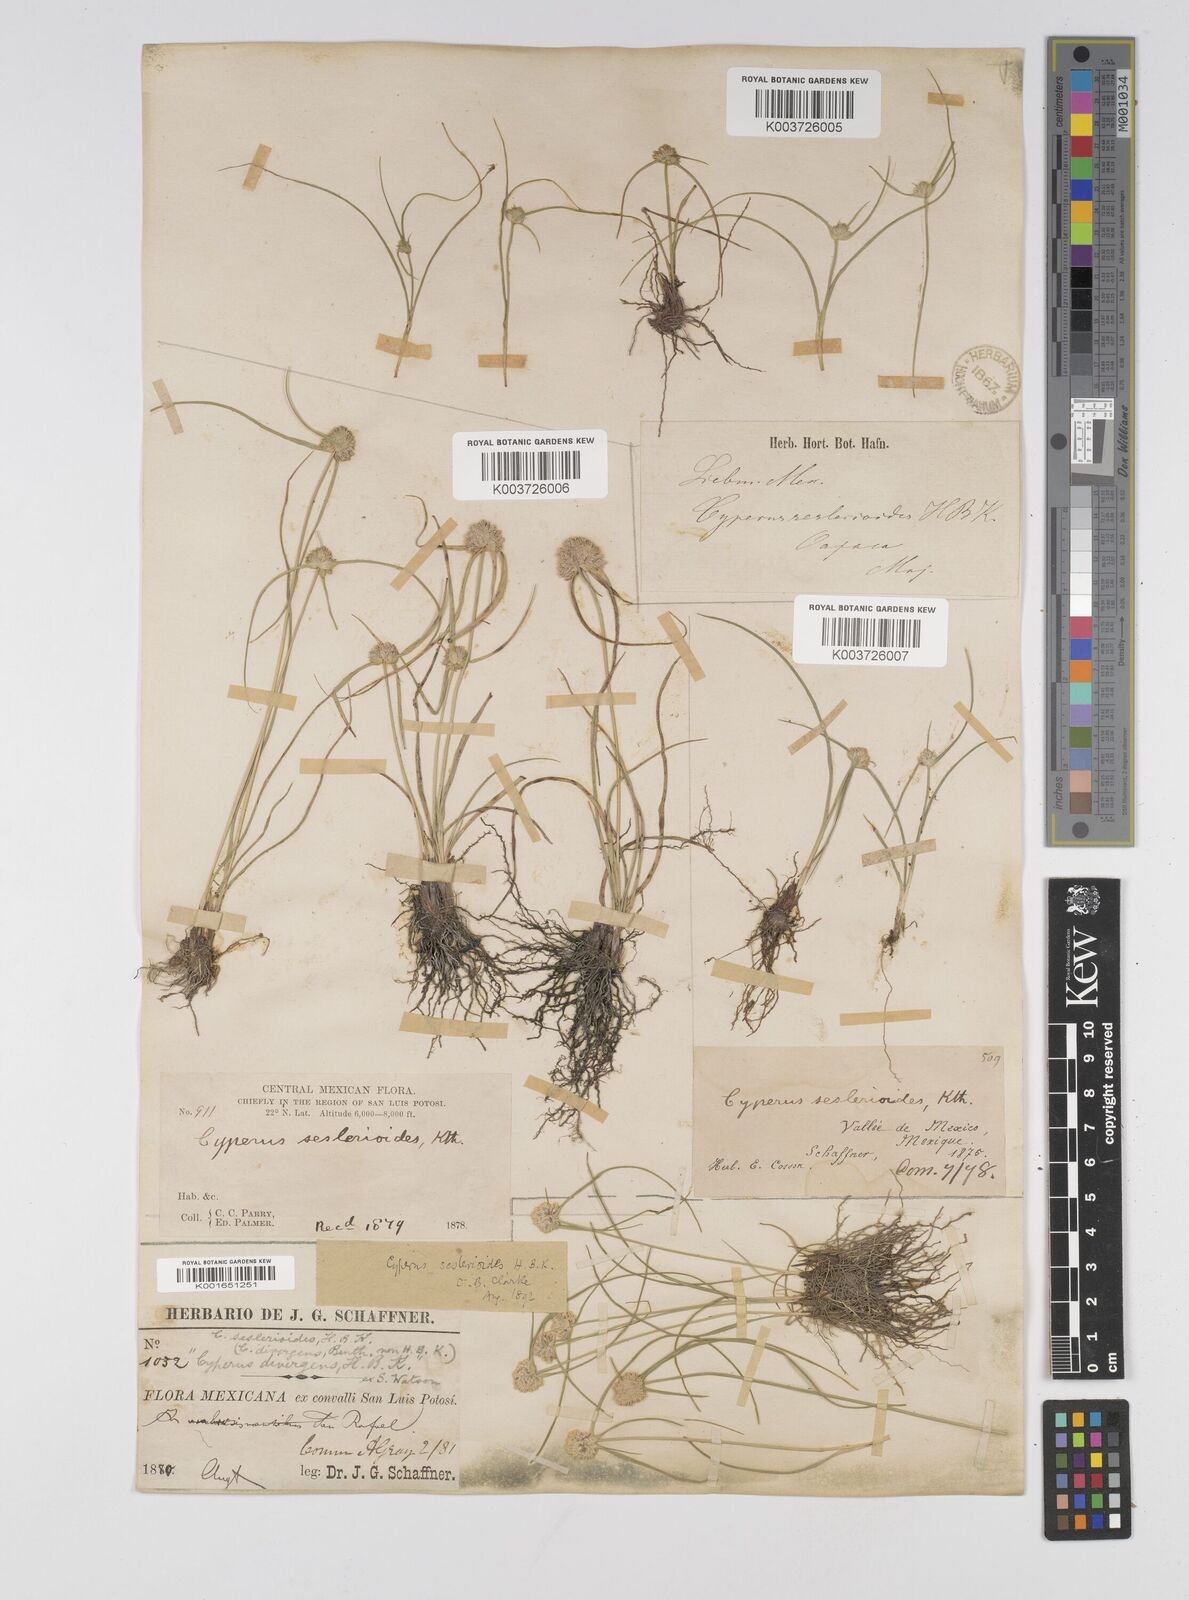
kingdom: Plantae
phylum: Tracheophyta
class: Liliopsida
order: Poales
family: Cyperaceae
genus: Cyperus
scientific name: Cyperus seslerioides
